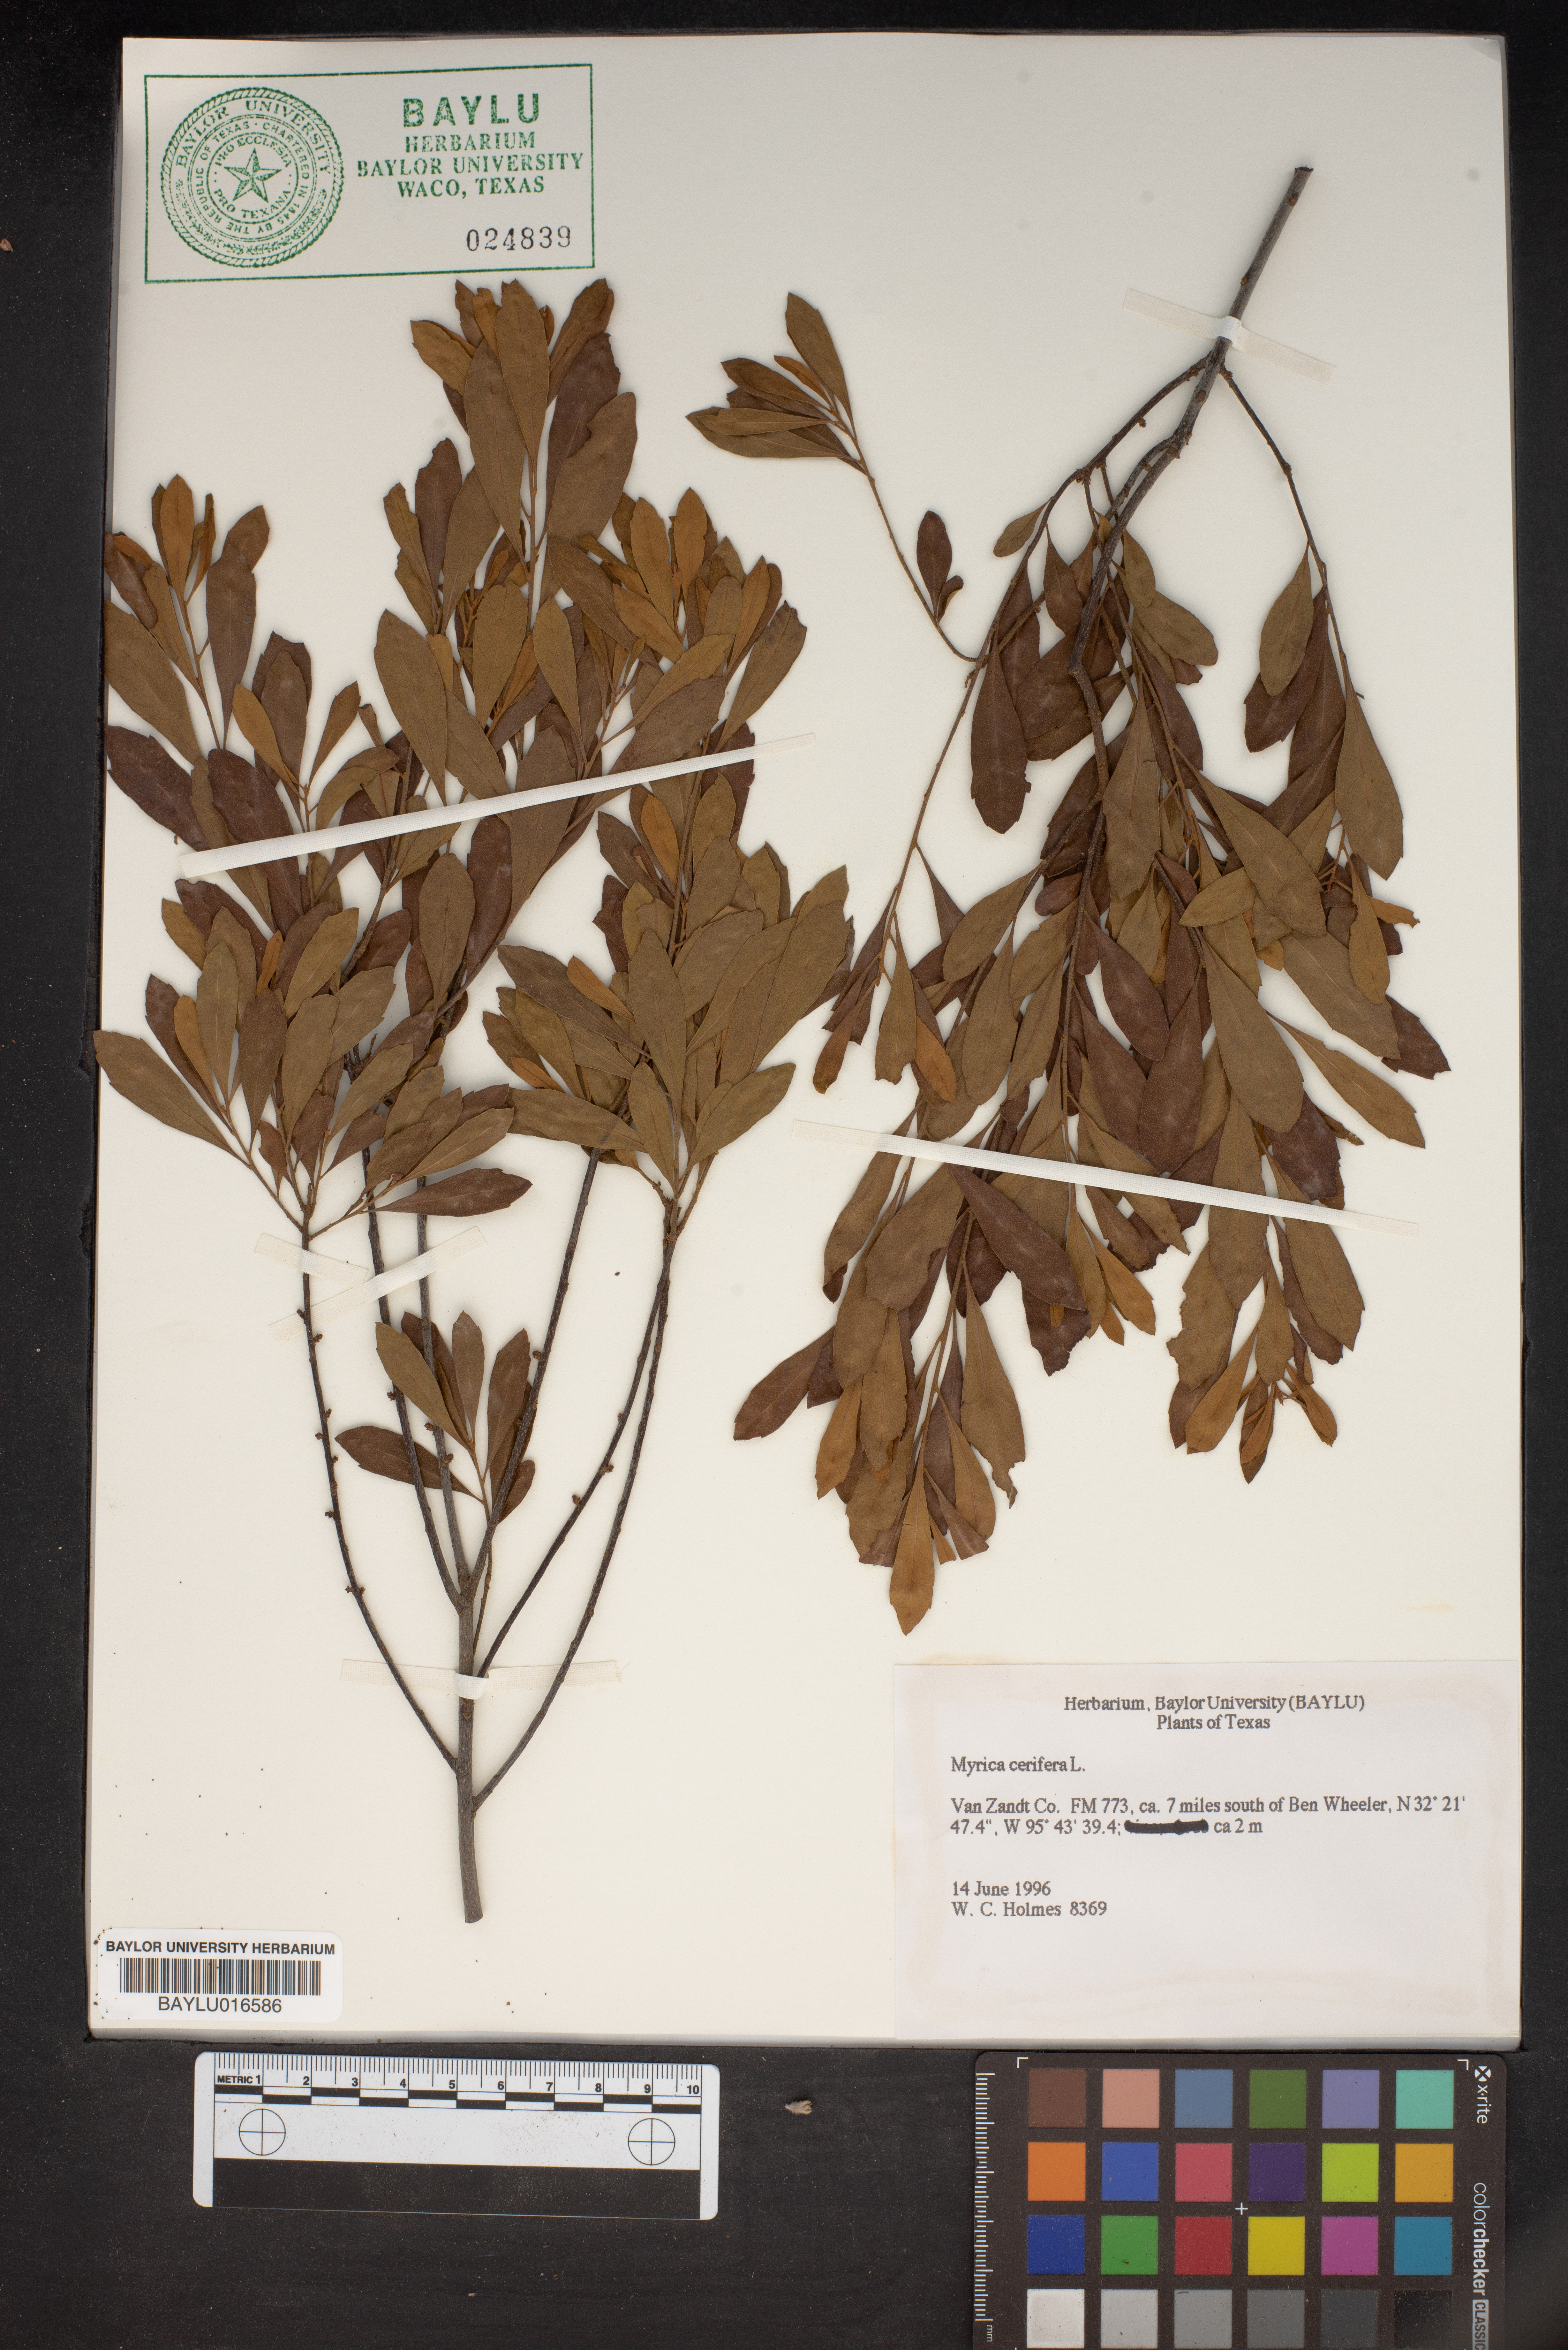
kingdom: Plantae
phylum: Tracheophyta
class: Magnoliopsida
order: Fagales
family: Myricaceae
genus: Morella
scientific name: Morella cerifera
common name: Wax myrtle
